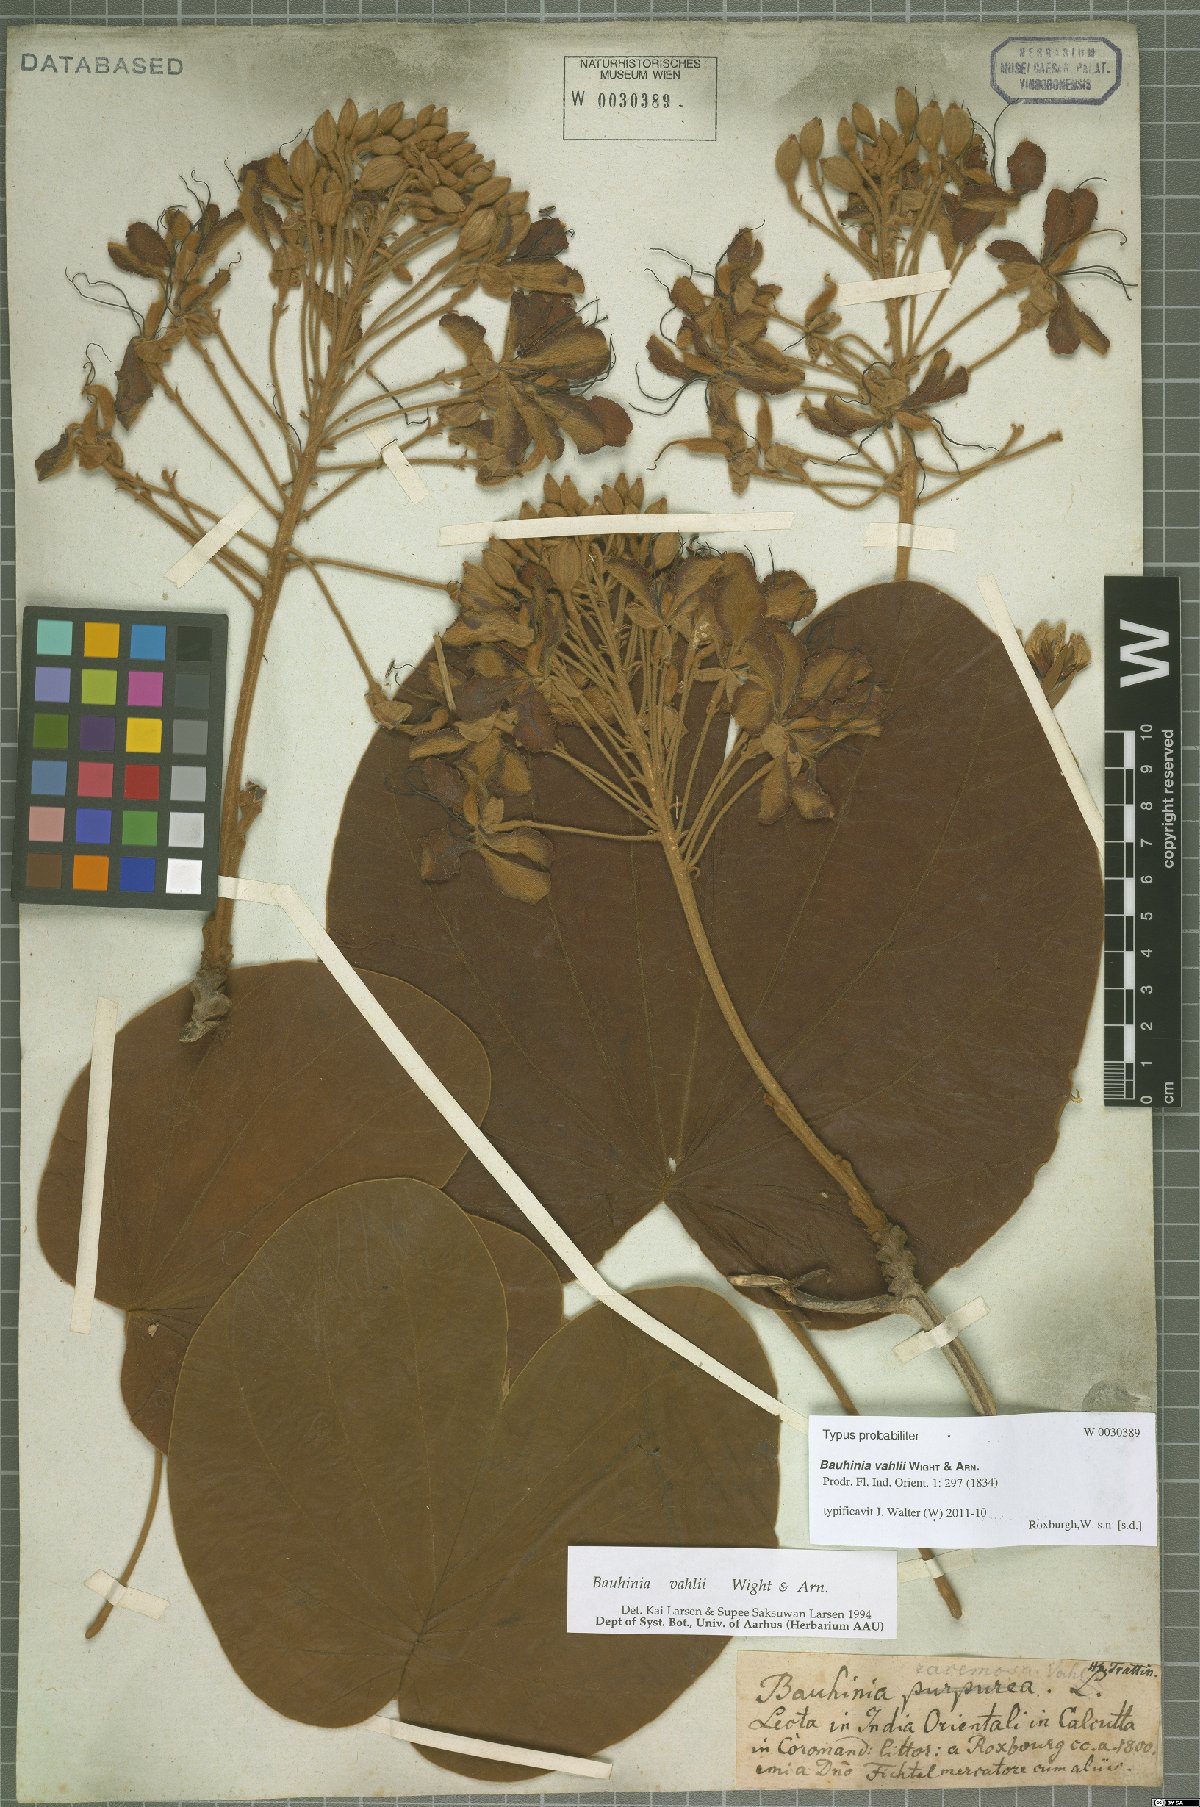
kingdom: Plantae
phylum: Tracheophyta
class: Magnoliopsida
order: Fabales
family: Fabaceae
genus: Phanera
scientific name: Phanera vahlii
